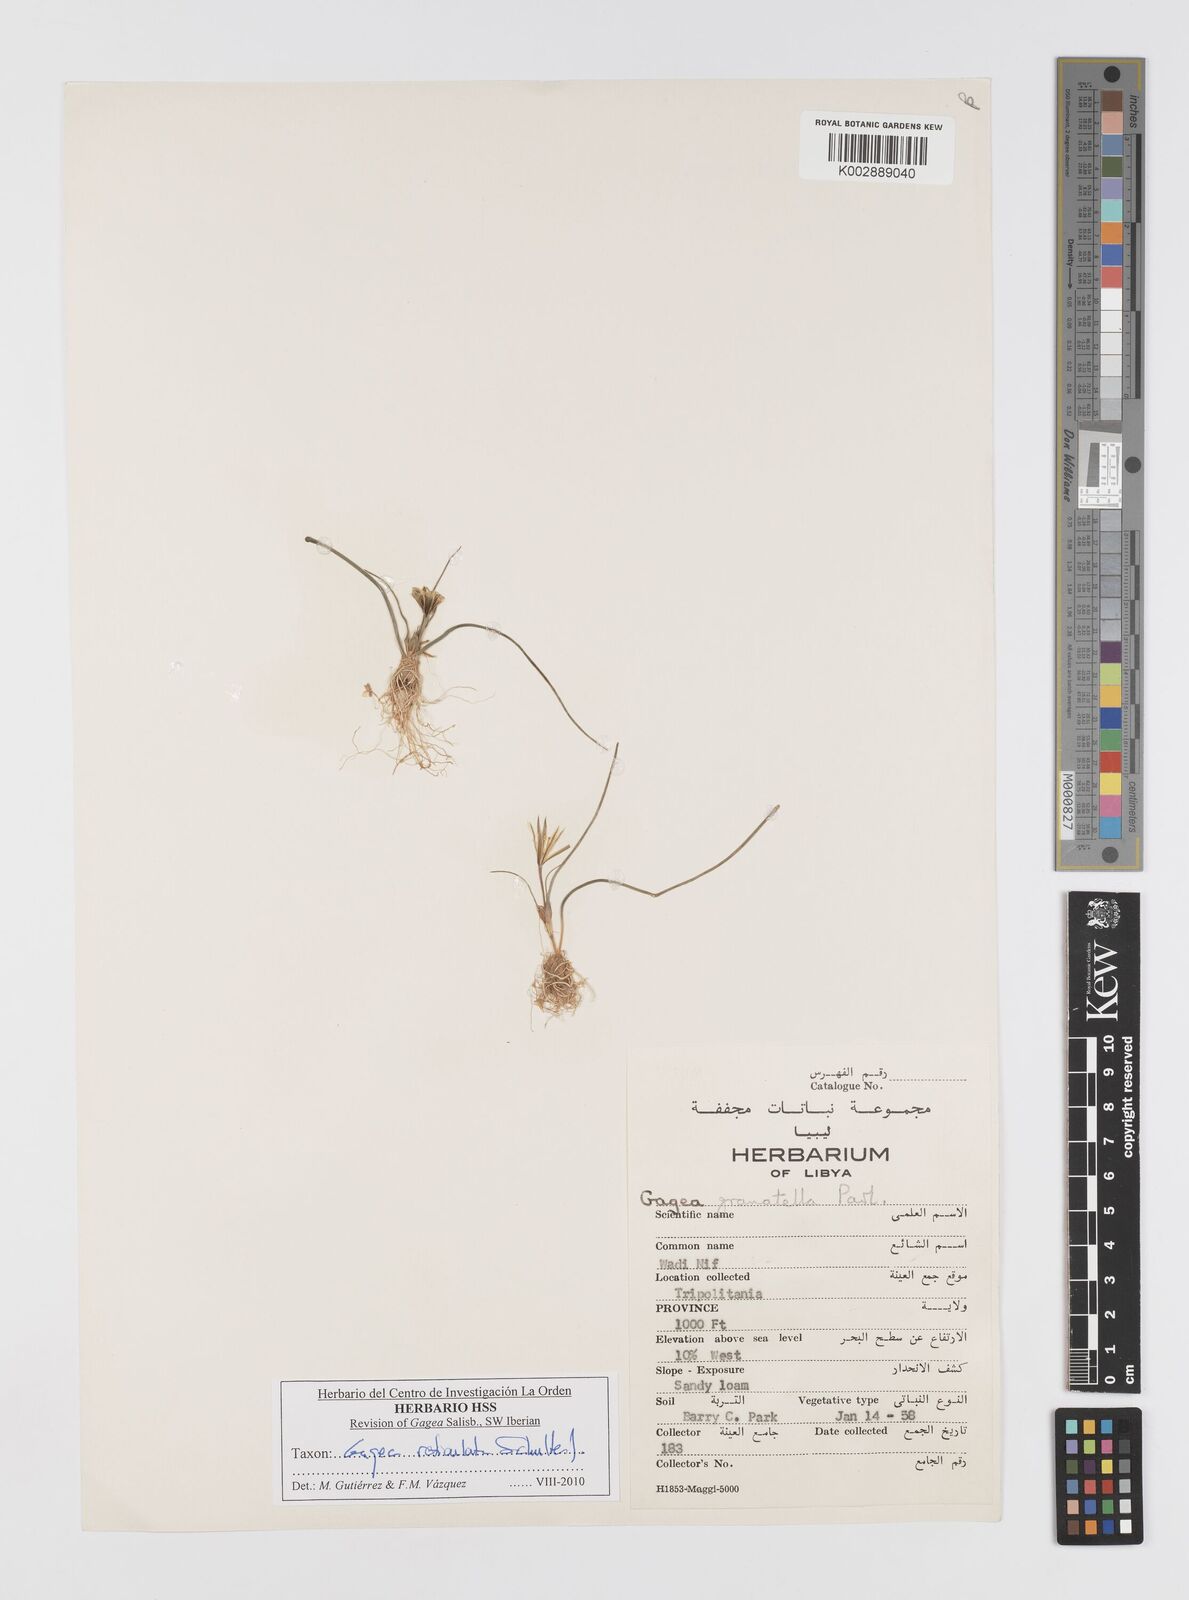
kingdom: Plantae
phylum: Tracheophyta
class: Liliopsida
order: Liliales
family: Liliaceae
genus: Gagea
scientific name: Gagea reticulata
